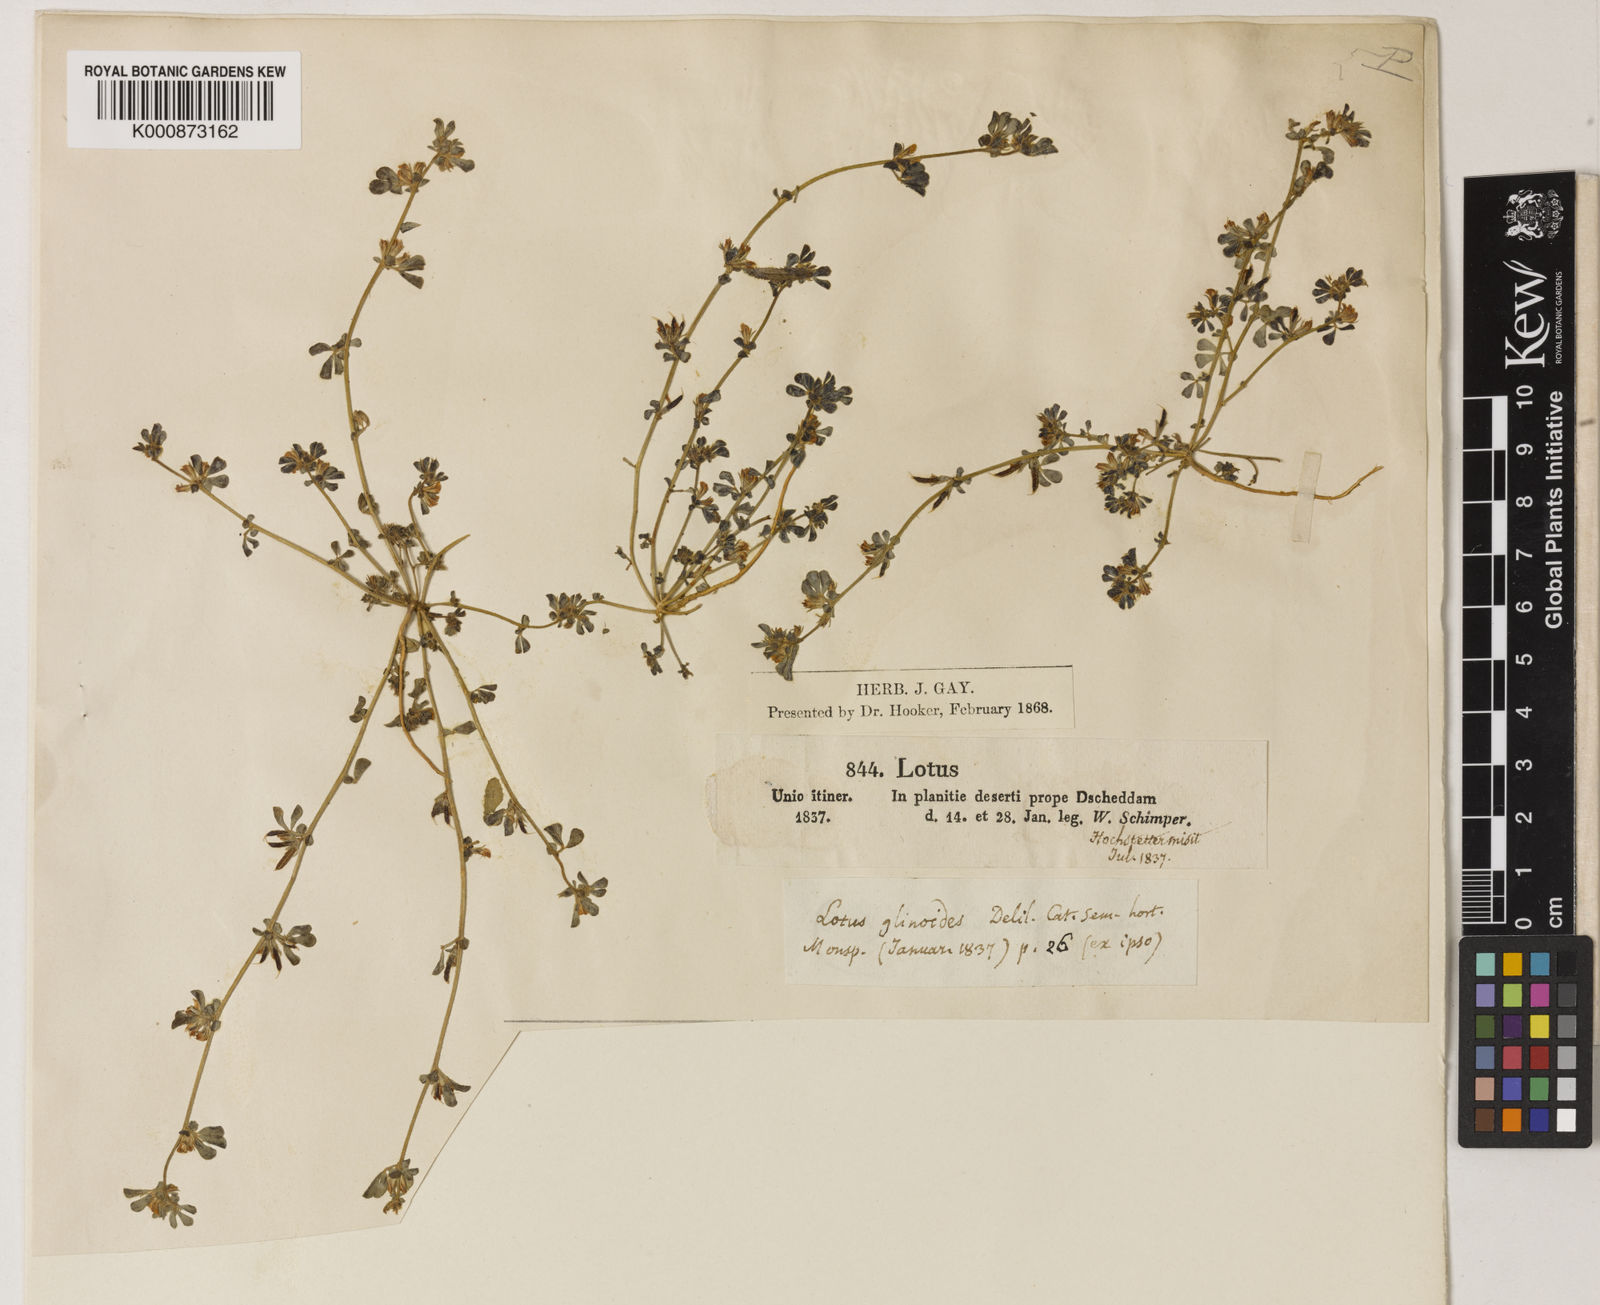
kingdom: Plantae
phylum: Tracheophyta
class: Magnoliopsida
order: Fabales
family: Fabaceae
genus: Lotus
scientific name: Lotus
